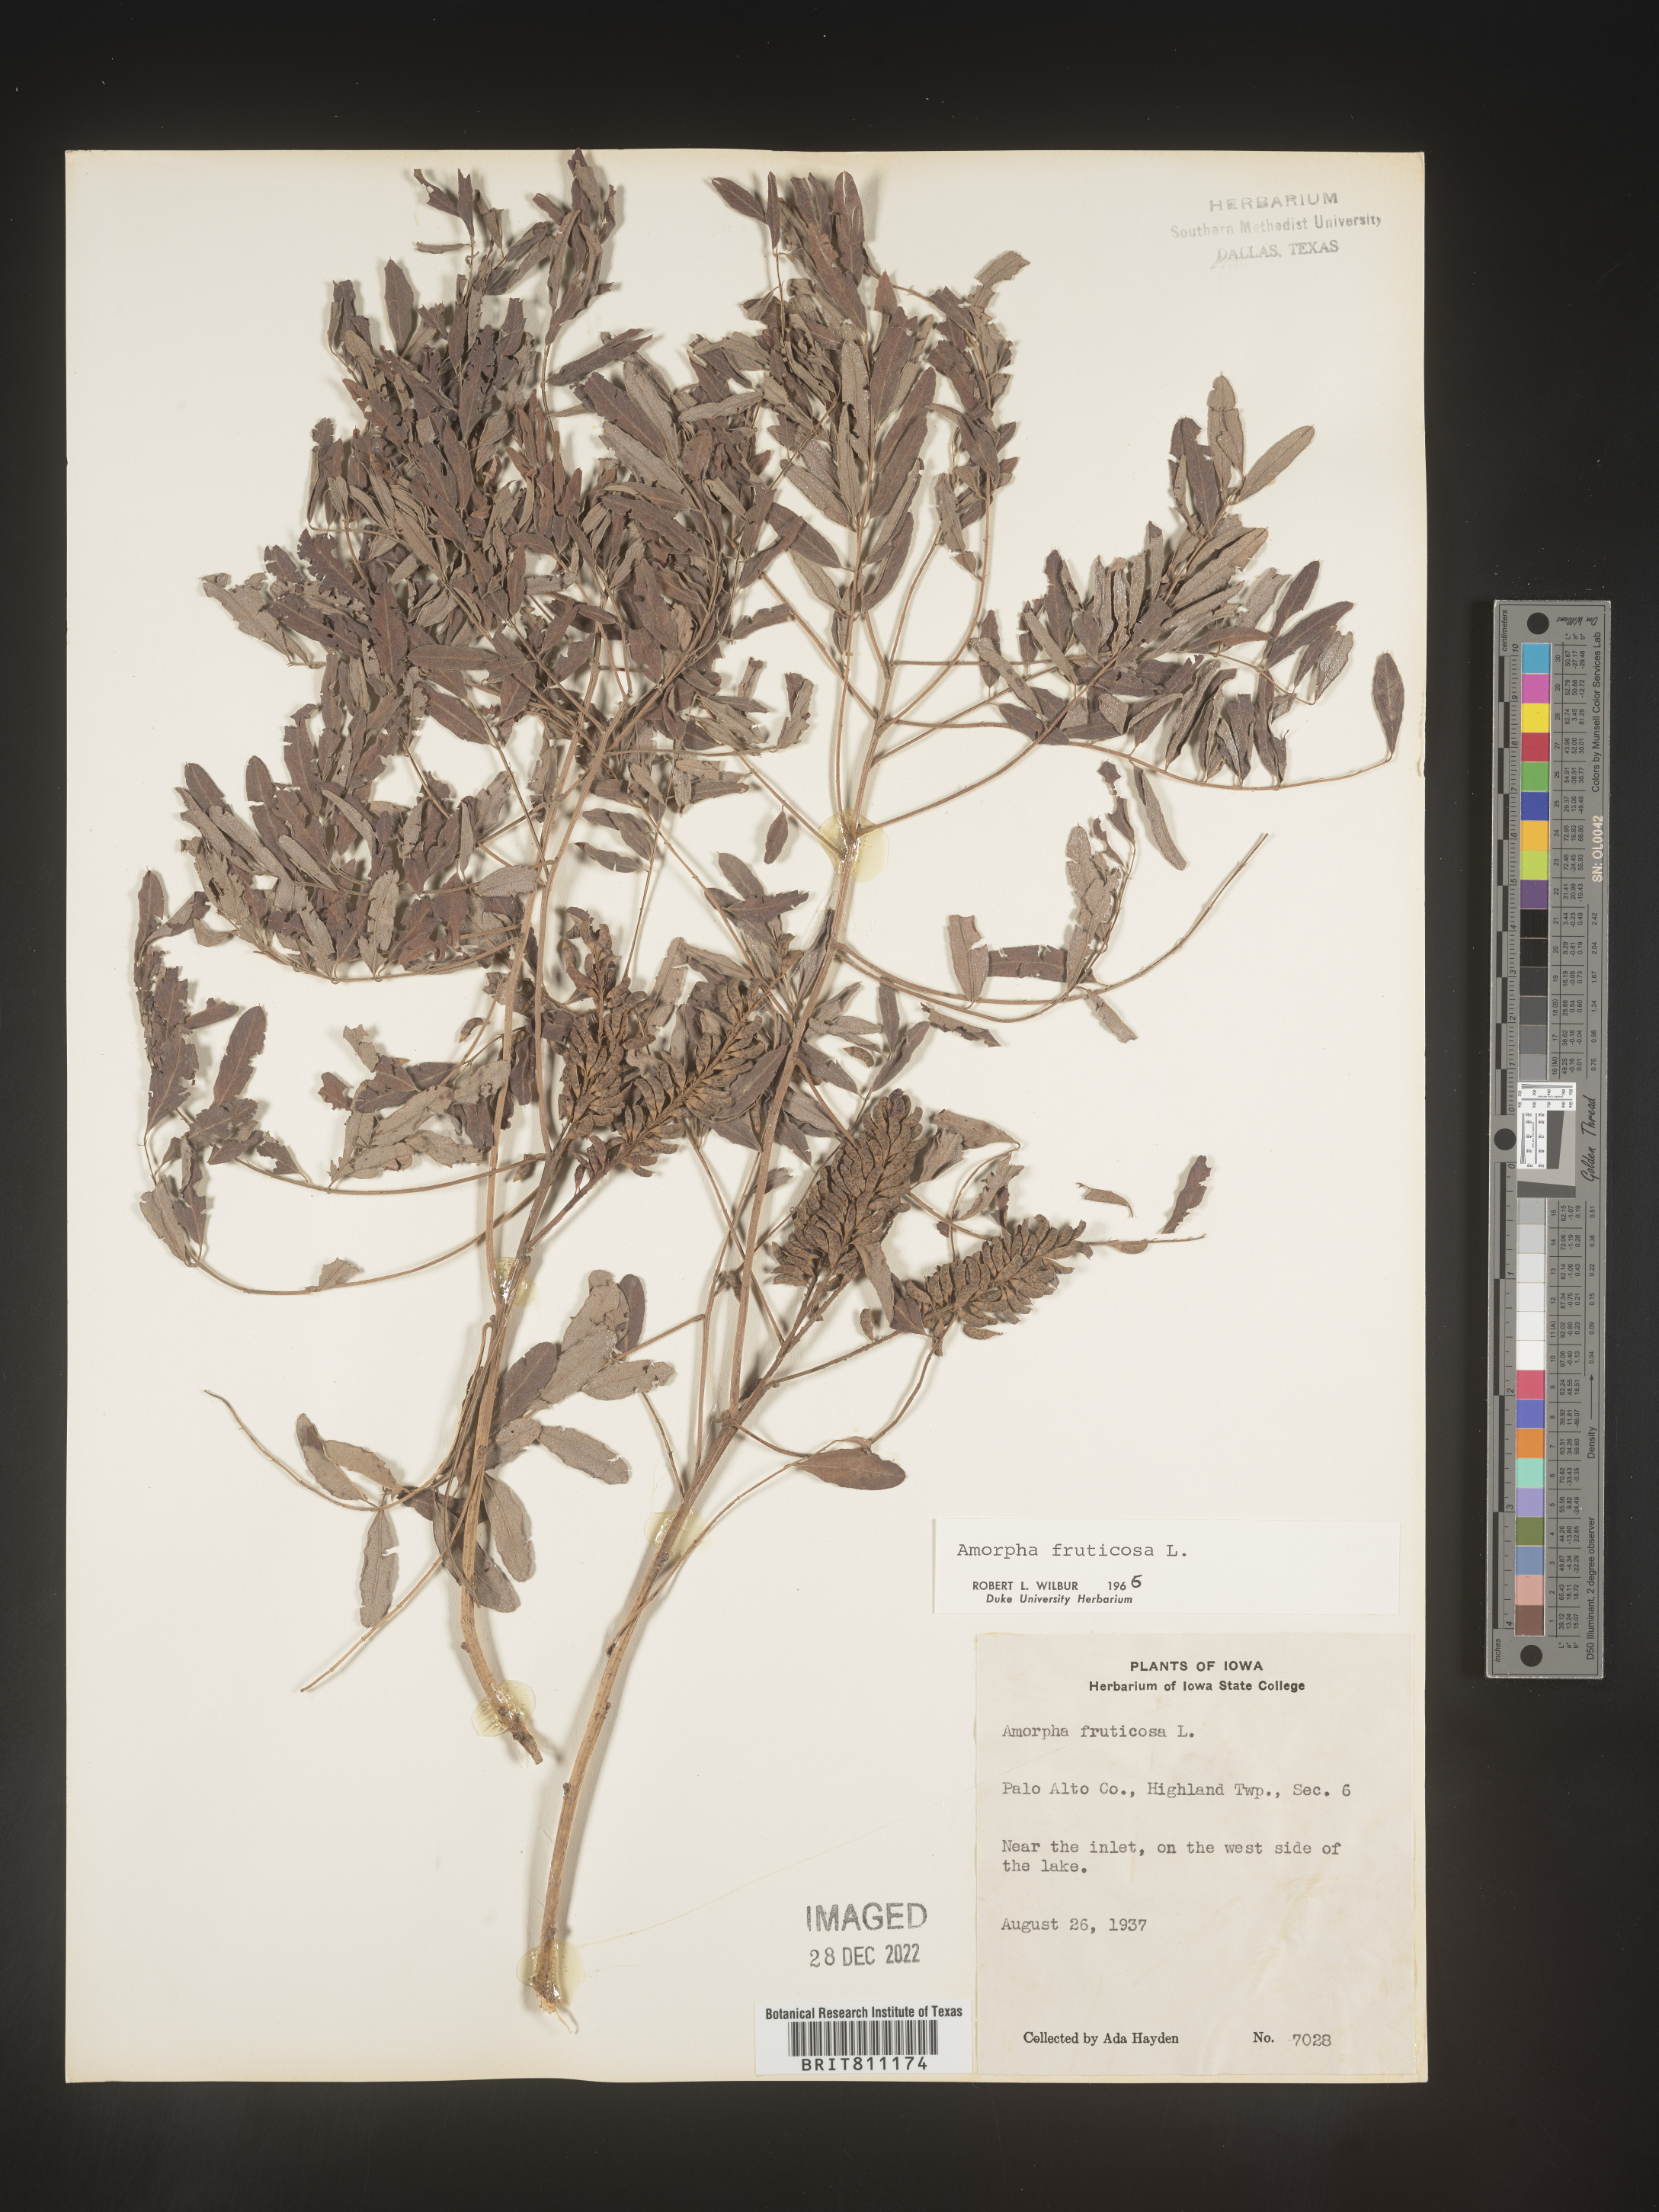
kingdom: Plantae
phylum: Tracheophyta
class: Magnoliopsida
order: Fabales
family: Fabaceae
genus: Amorpha
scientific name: Amorpha fruticosa
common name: False indigo
